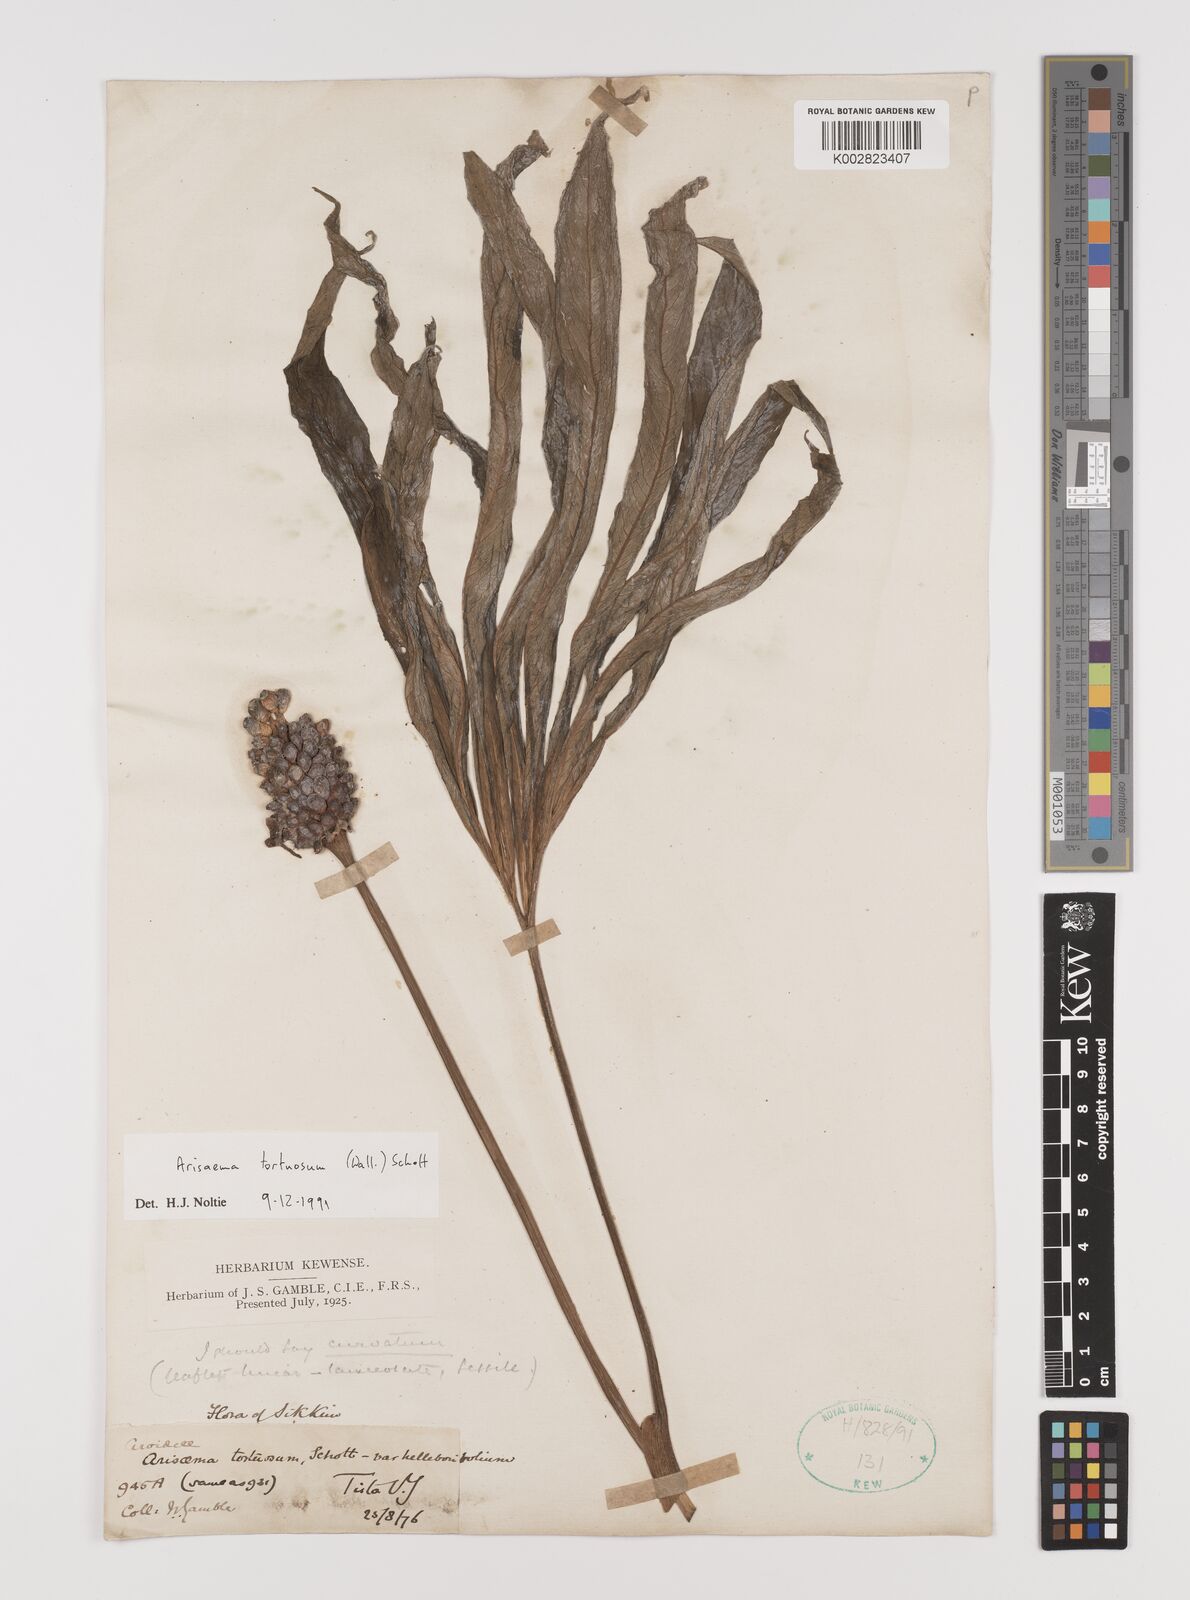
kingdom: Plantae
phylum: Tracheophyta
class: Liliopsida
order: Alismatales
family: Araceae
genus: Arisaema
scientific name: Arisaema tortuosum
